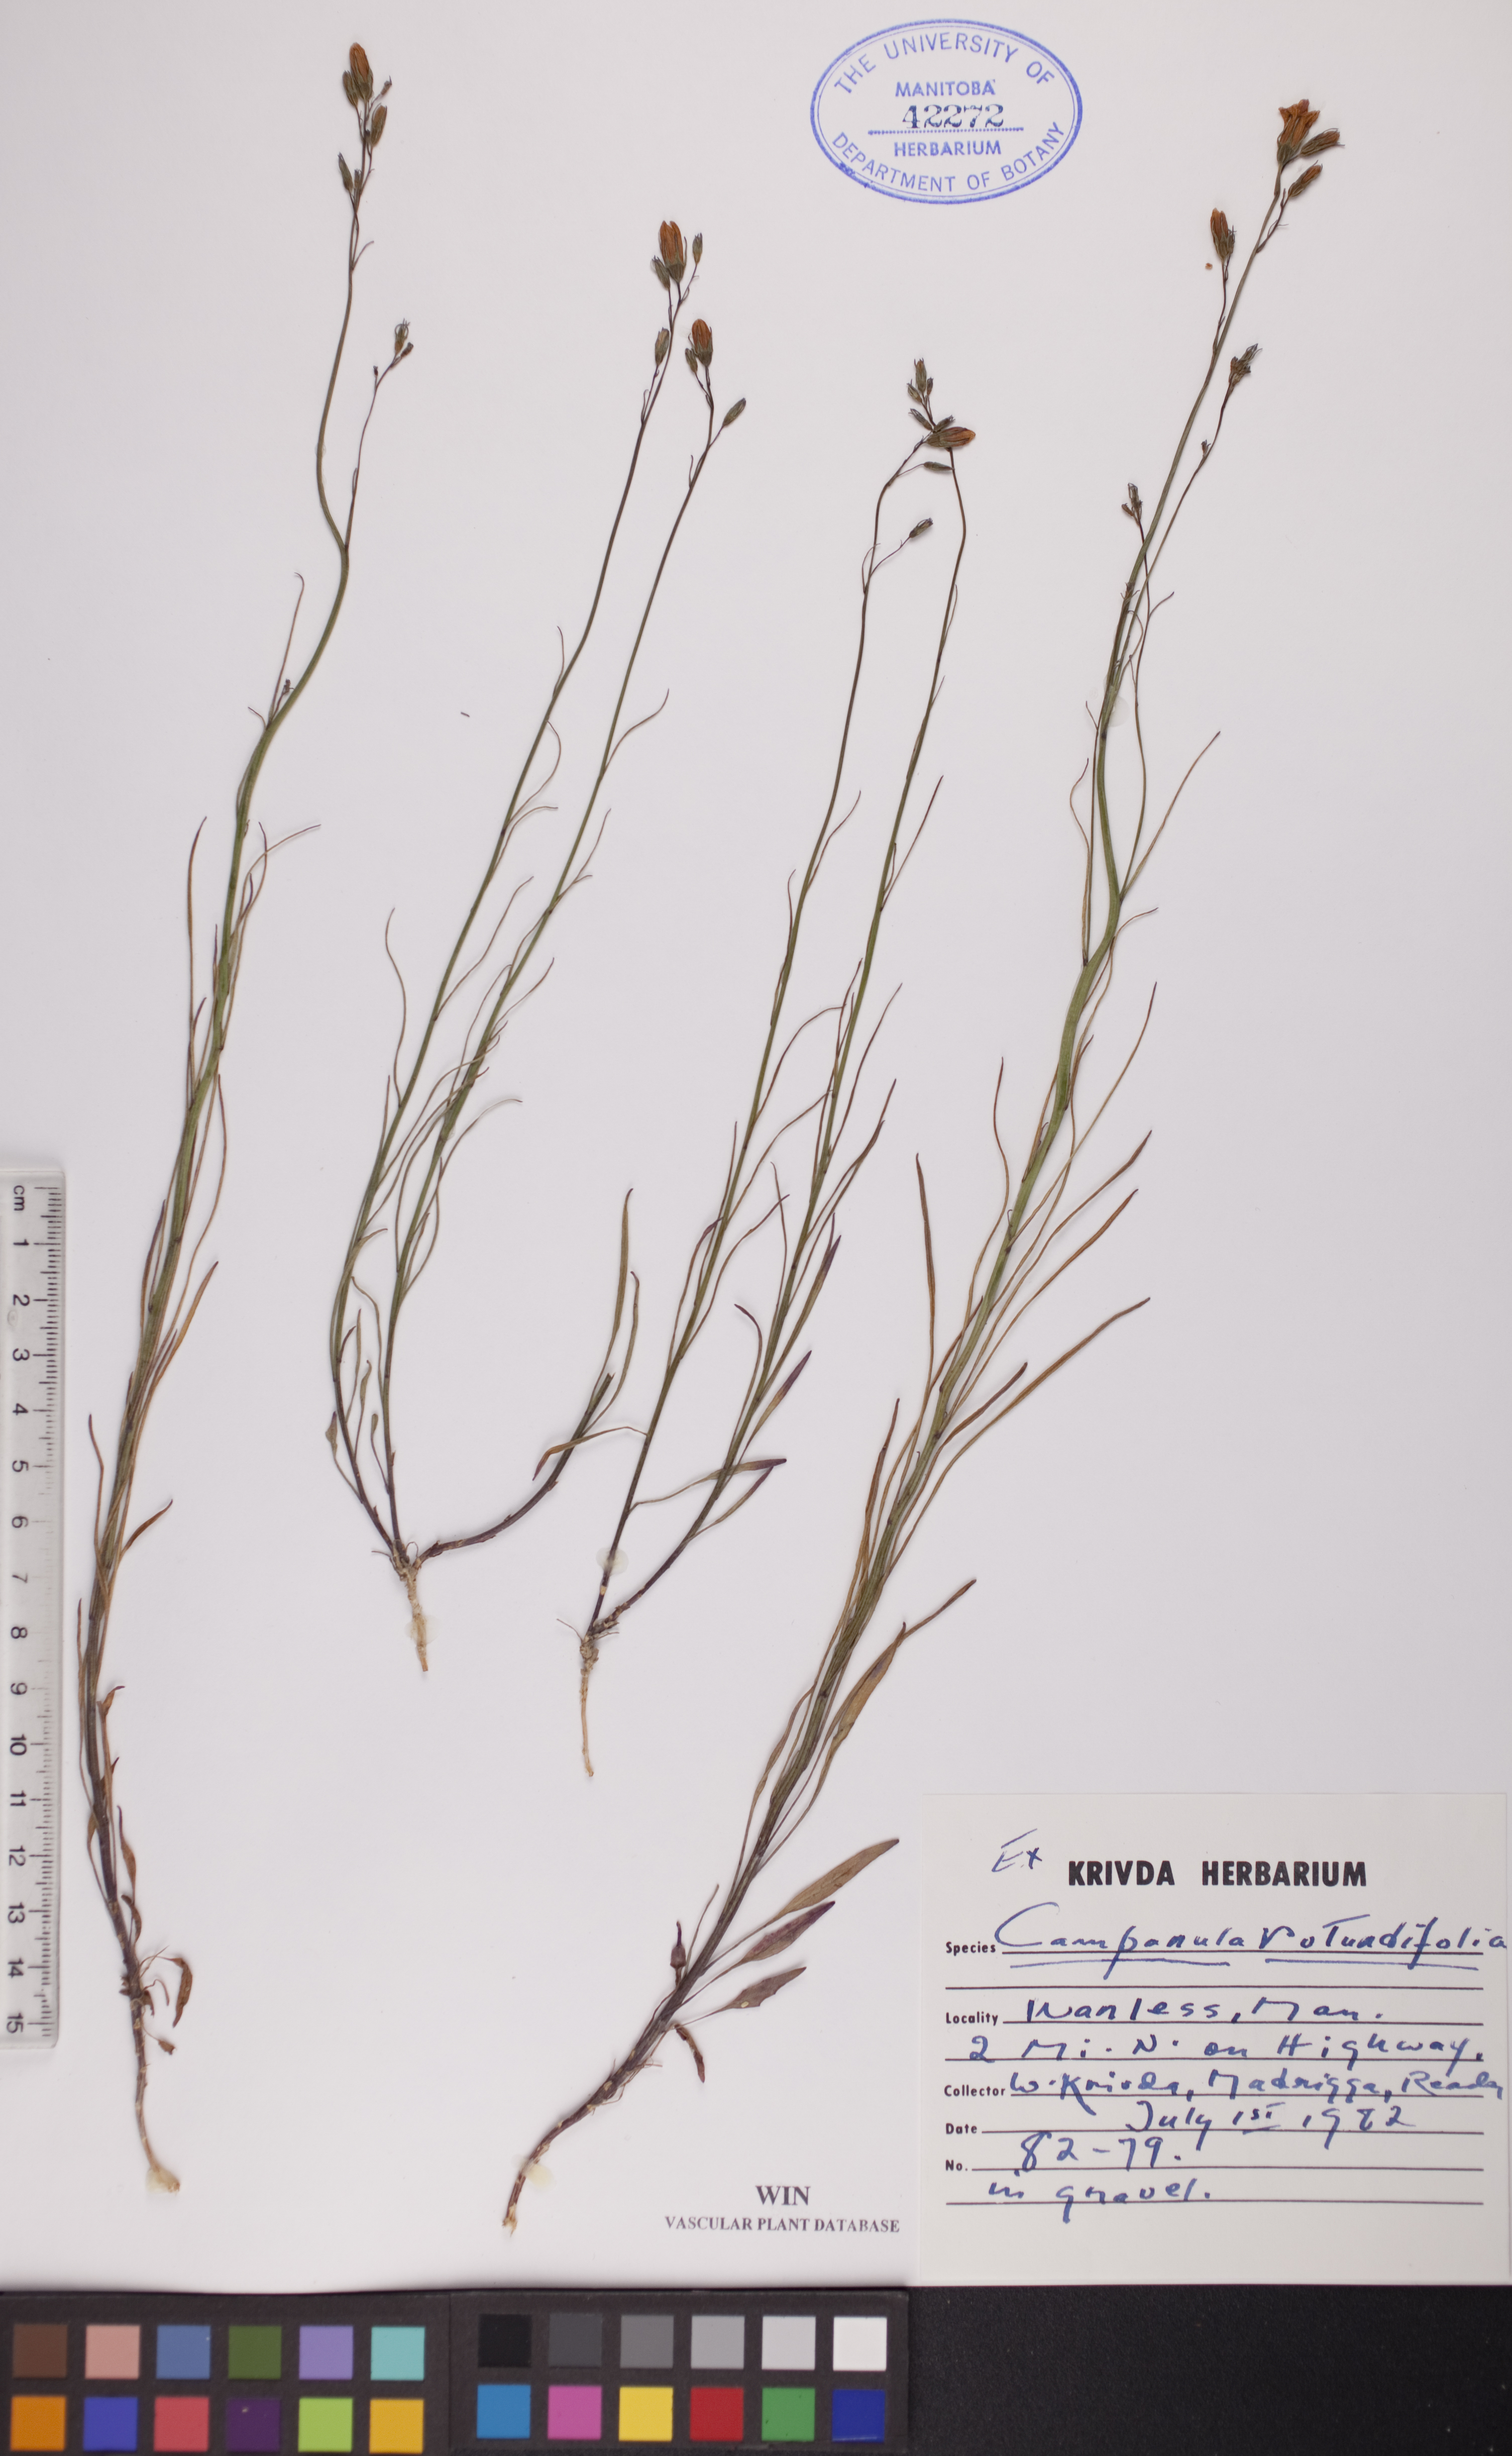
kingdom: Plantae
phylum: Tracheophyta
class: Magnoliopsida
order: Asterales
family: Campanulaceae
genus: Campanula
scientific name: Campanula rotundifolia
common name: Harebell
